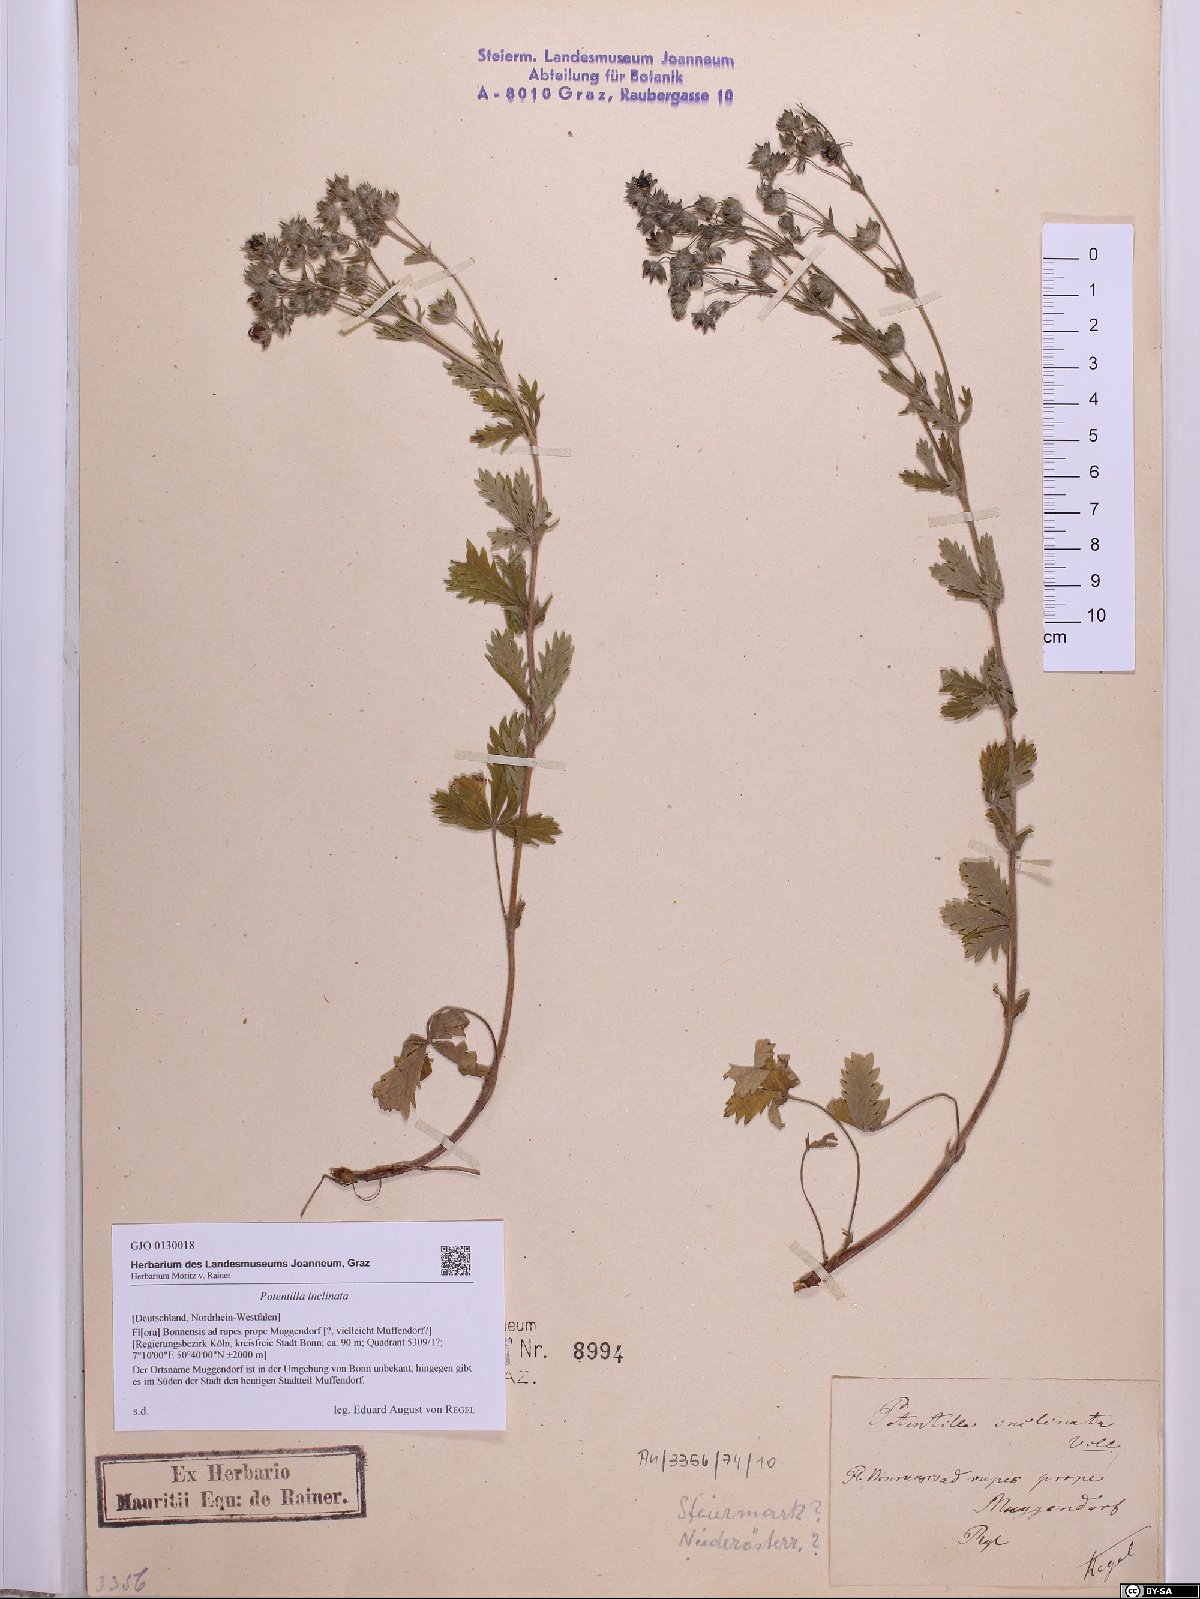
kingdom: Plantae
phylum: Tracheophyta
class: Magnoliopsida
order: Rosales
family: Rosaceae
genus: Potentilla
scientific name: Potentilla inclinata
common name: Grey cinquefoil
